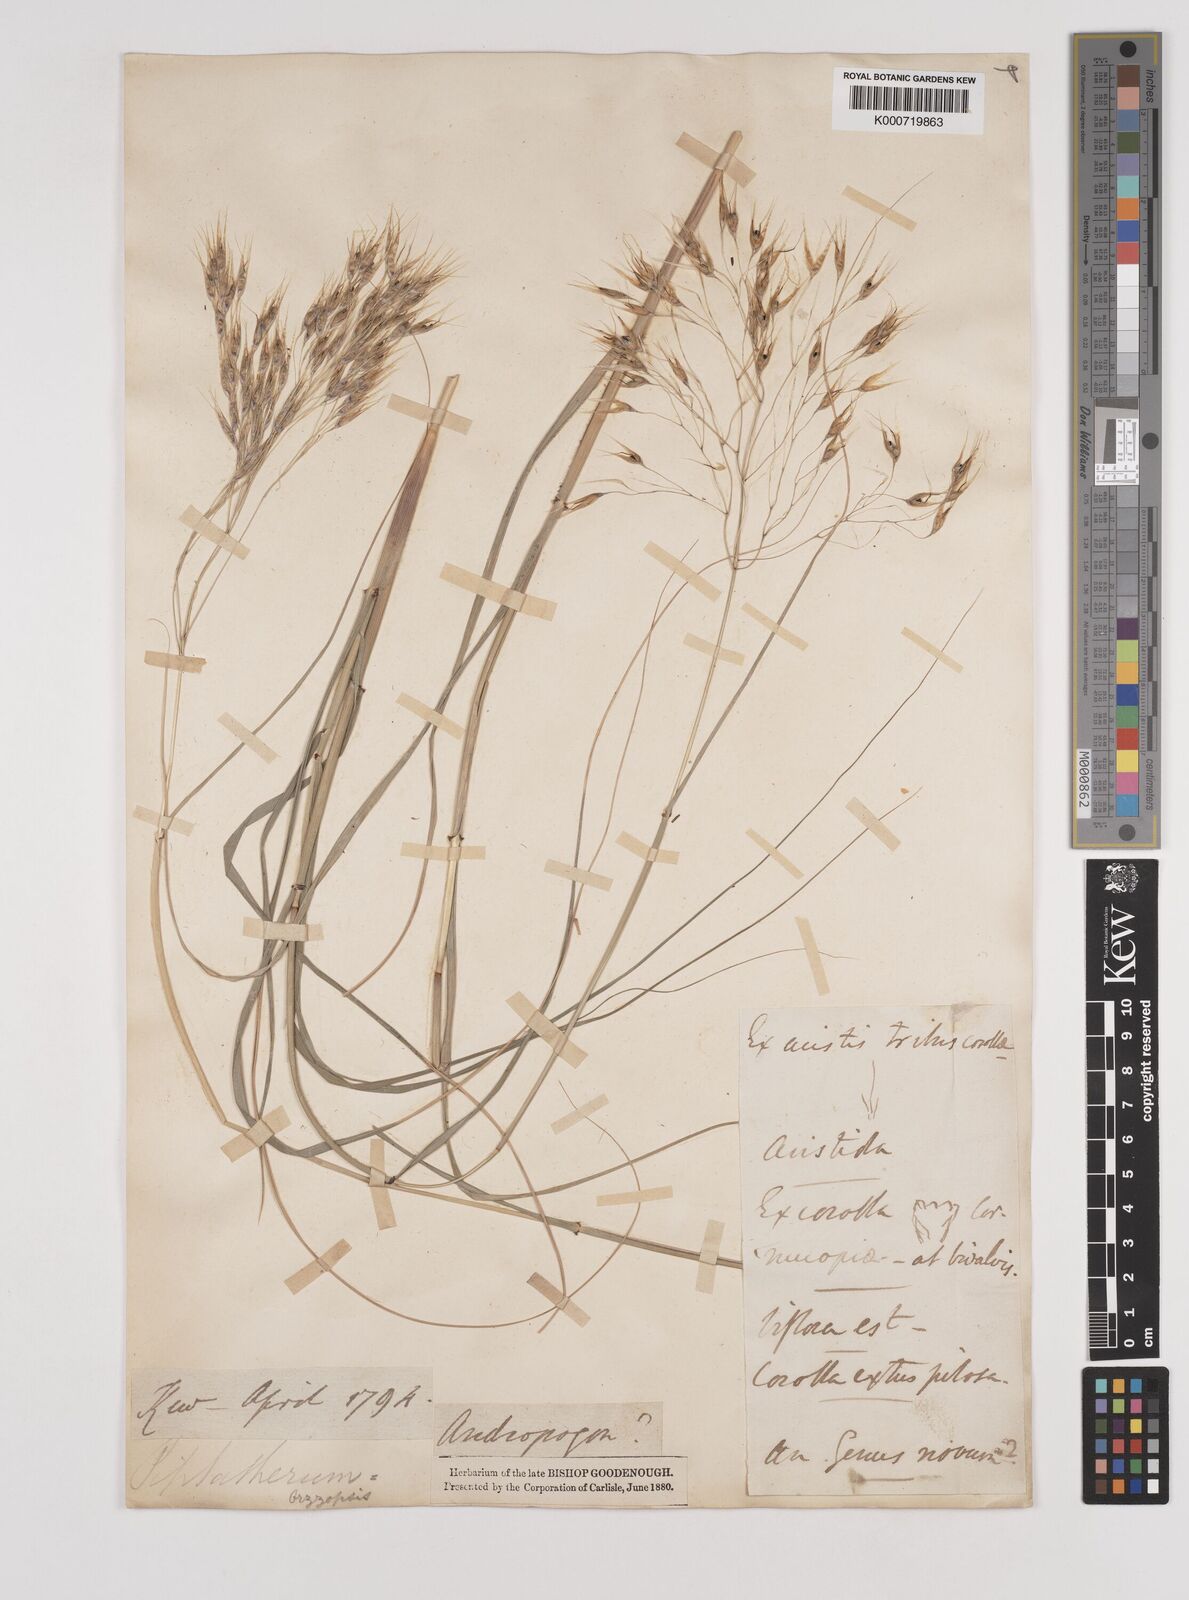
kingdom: Plantae
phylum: Tracheophyta
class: Liliopsida
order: Poales
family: Poaceae
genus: Pentameris
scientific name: Pentameris thuarii
